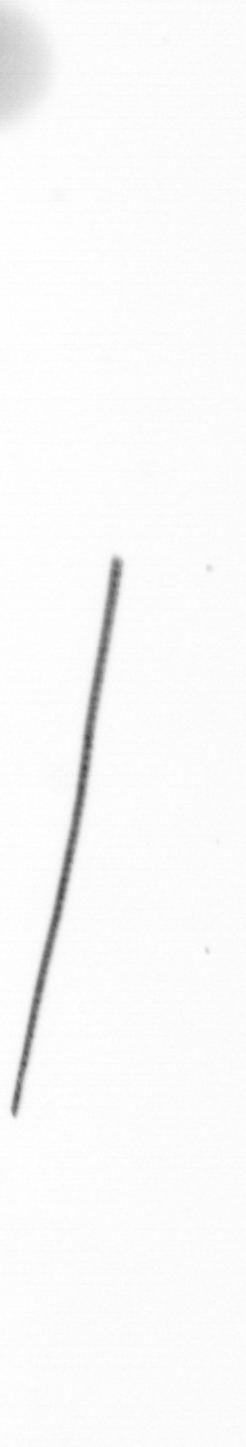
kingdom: Chromista
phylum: Ochrophyta
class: Bacillariophyceae
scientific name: Bacillariophyceae
